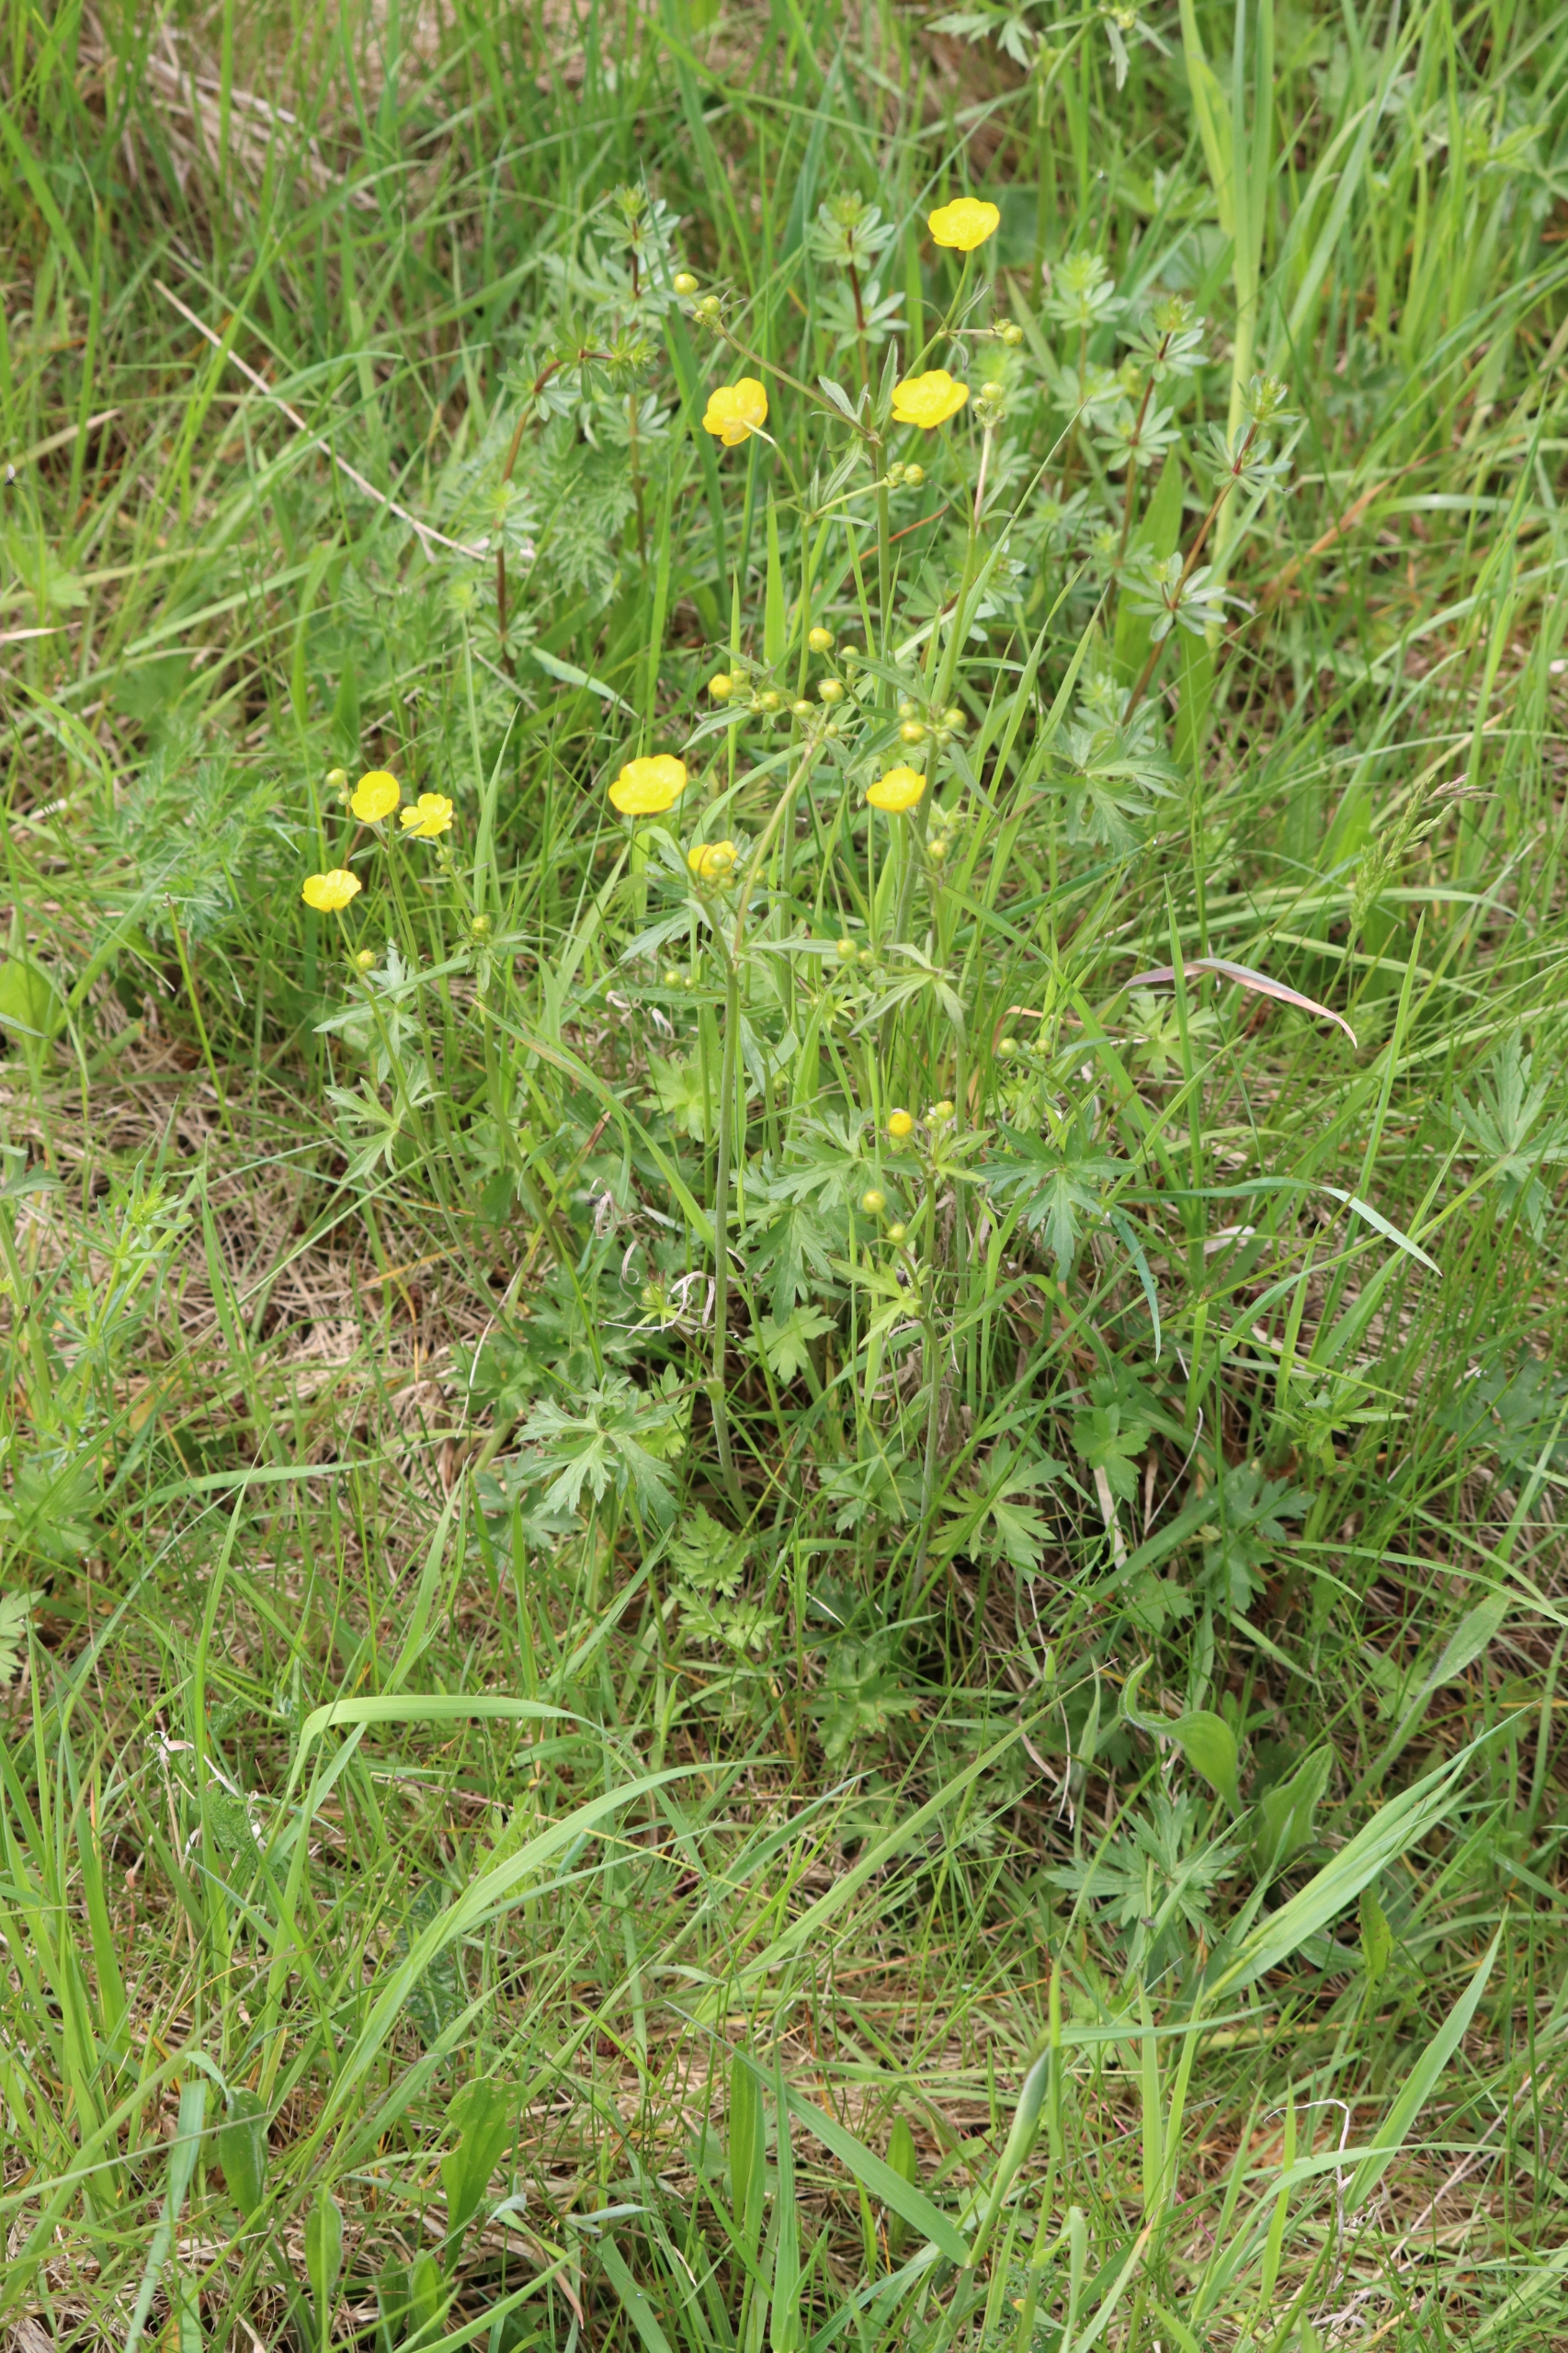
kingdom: Plantae
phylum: Tracheophyta
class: Magnoliopsida
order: Ranunculales
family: Ranunculaceae
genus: Ranunculus
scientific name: Ranunculus acris
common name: Bidende ranunkel
